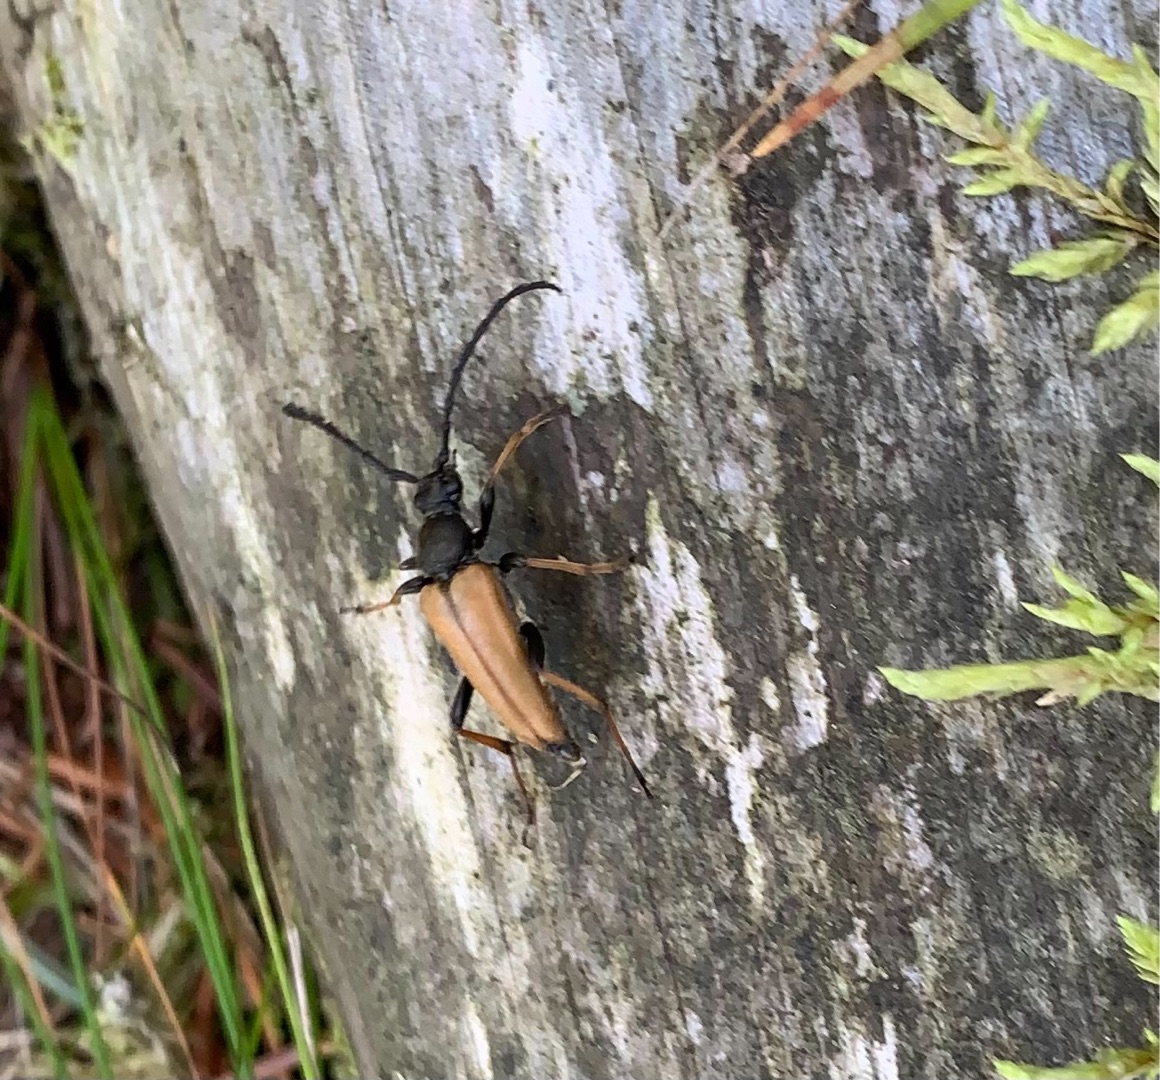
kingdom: Animalia
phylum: Arthropoda
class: Insecta
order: Coleoptera
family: Cerambycidae
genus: Stictoleptura
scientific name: Stictoleptura rubra
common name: Rød blomsterbuk
